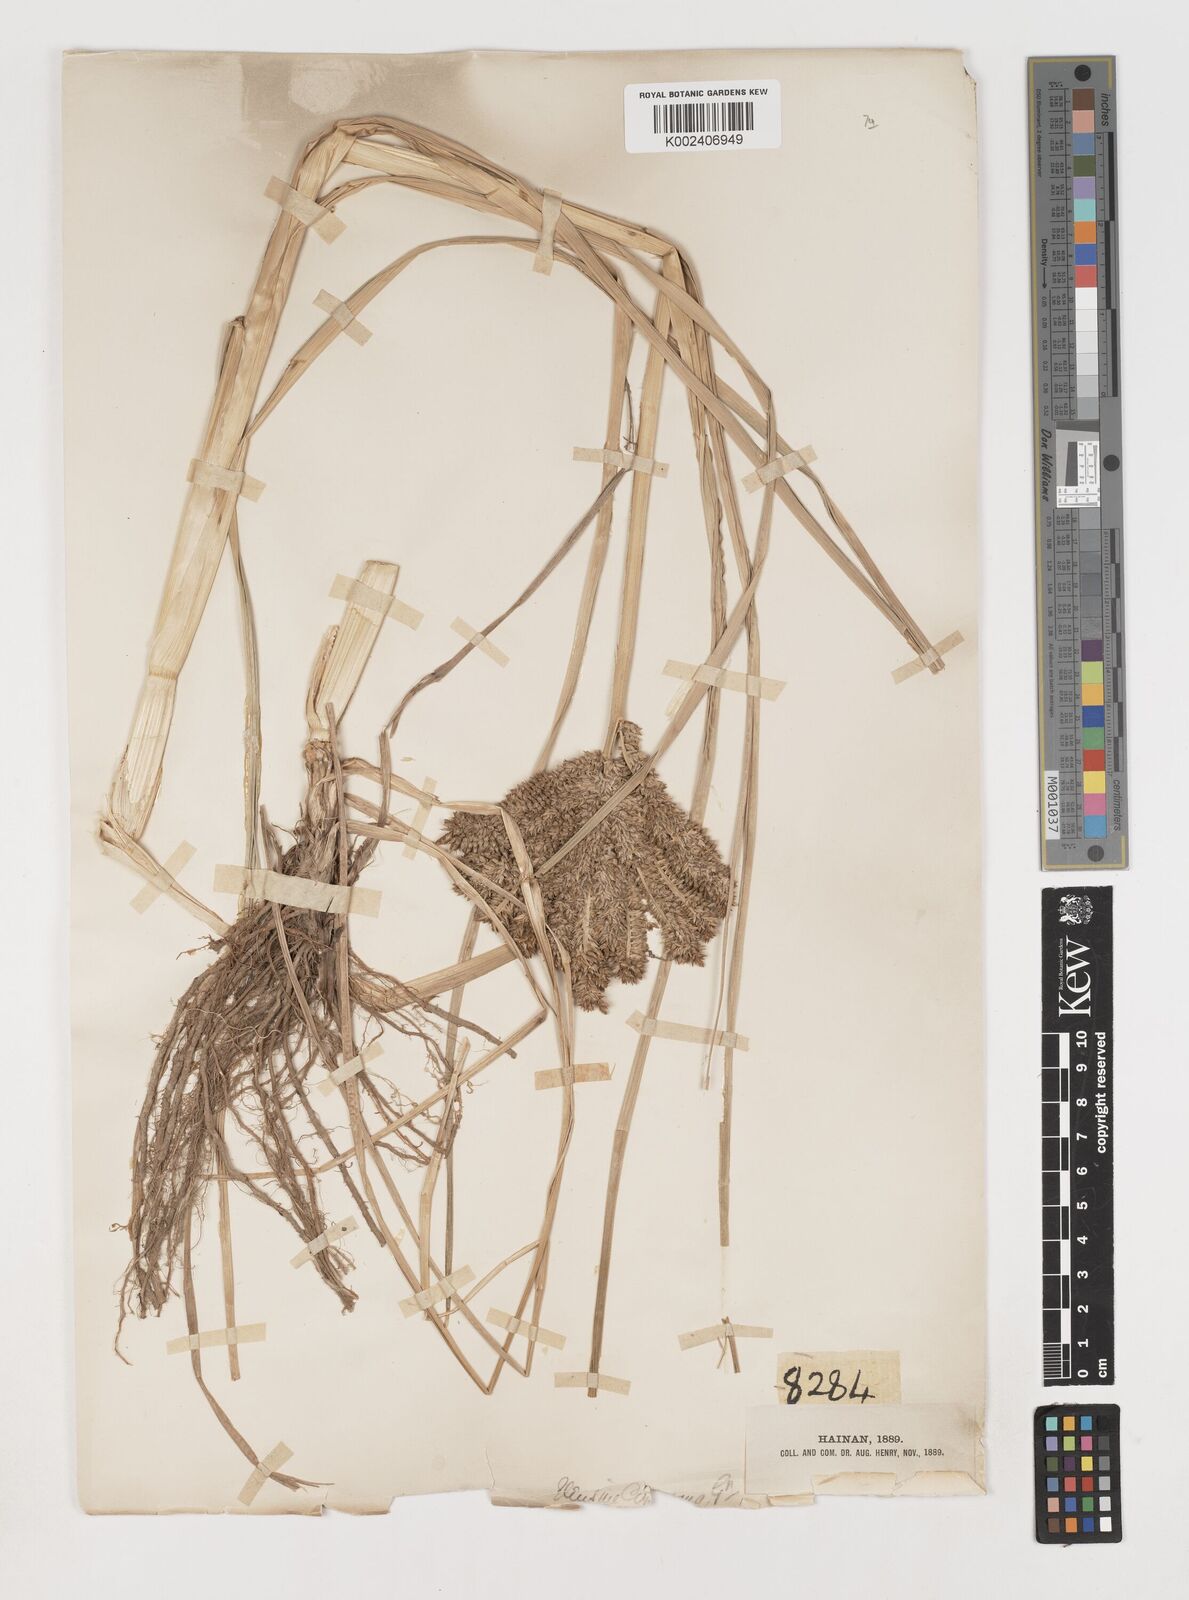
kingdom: Plantae
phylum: Tracheophyta
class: Liliopsida
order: Poales
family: Poaceae
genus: Eleusine
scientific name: Eleusine coracana
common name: Finger millet
